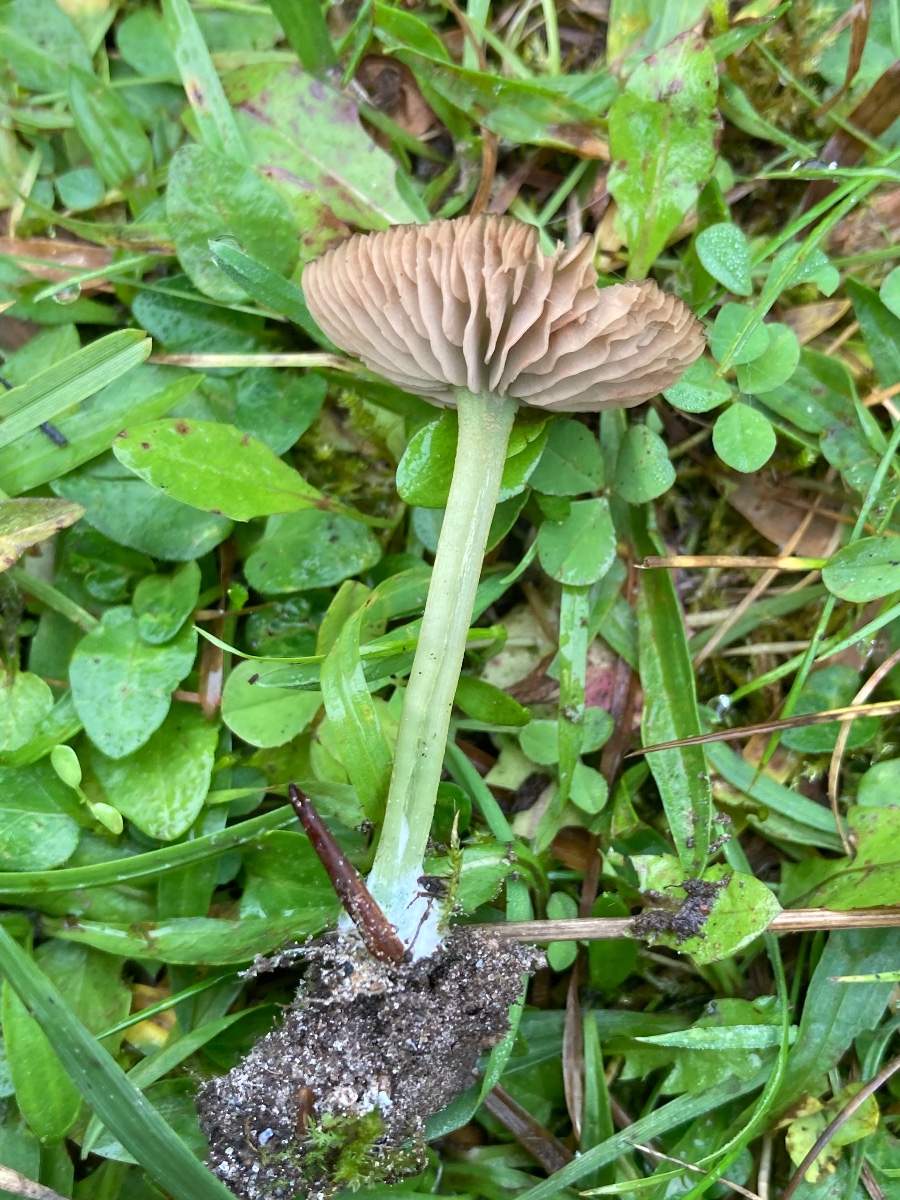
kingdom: Fungi
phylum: Basidiomycota
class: Agaricomycetes
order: Agaricales
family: Entolomataceae
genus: Entoloma
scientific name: Entoloma incanum
